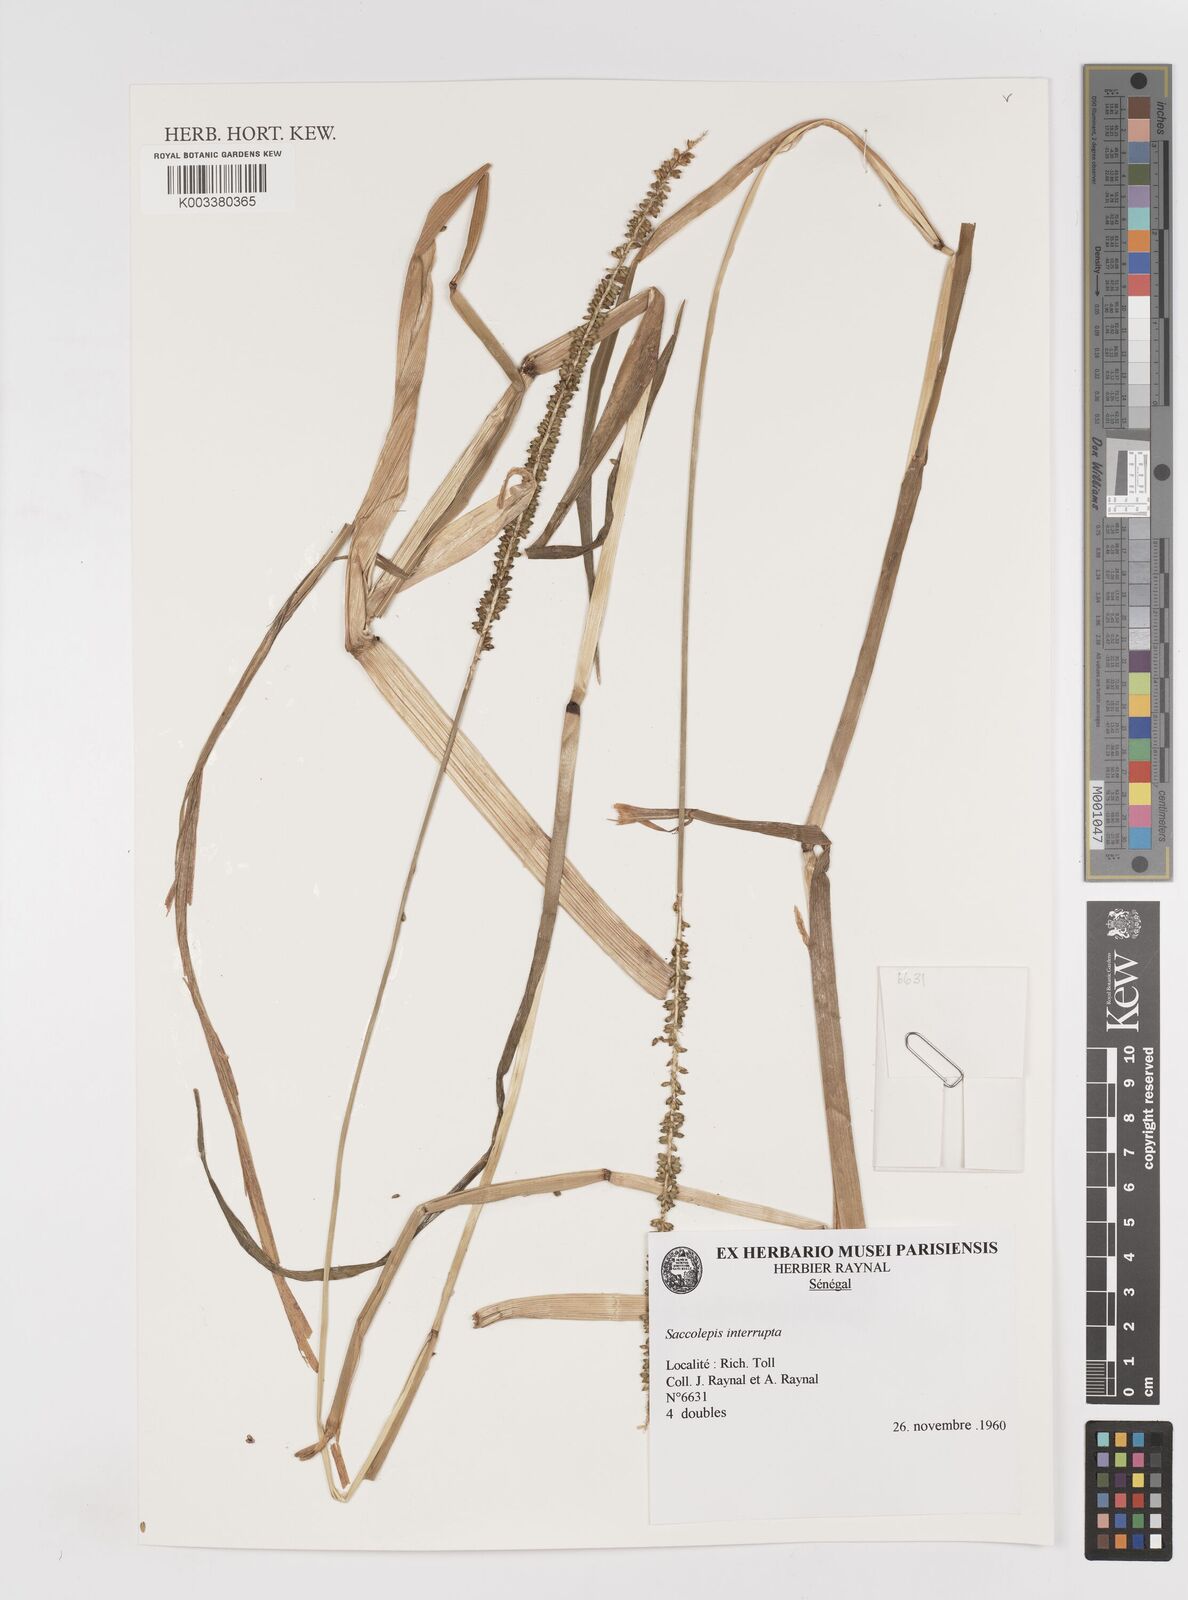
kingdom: Plantae
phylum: Tracheophyta
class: Liliopsida
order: Poales
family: Poaceae
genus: Sacciolepis
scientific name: Sacciolepis interrupta
